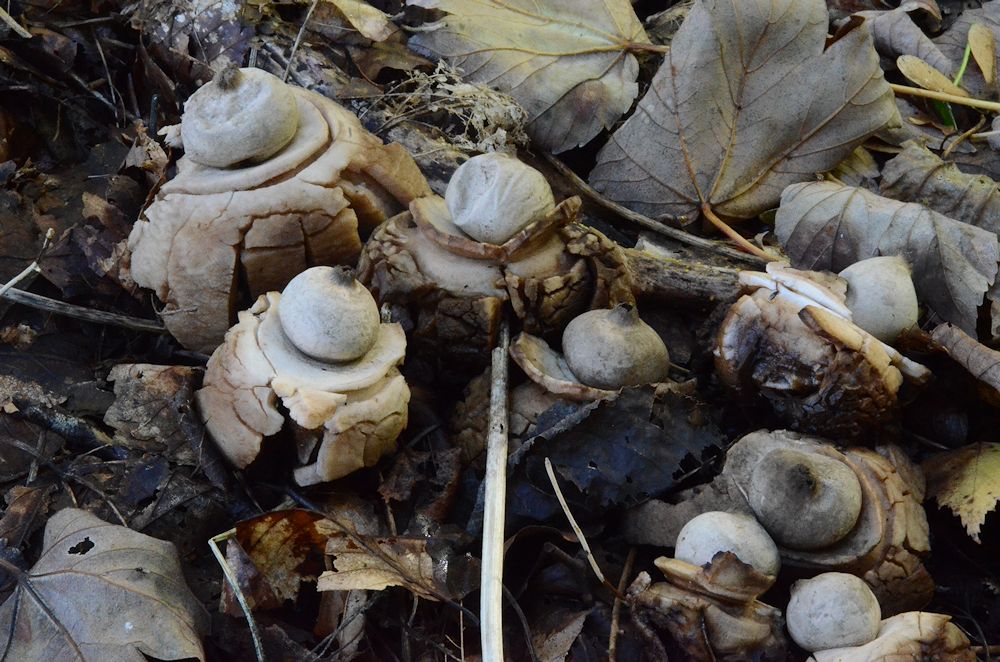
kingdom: Fungi
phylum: Basidiomycota
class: Agaricomycetes
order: Geastrales
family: Geastraceae
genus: Geastrum
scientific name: Geastrum michelianum
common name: kødet stjernebold
